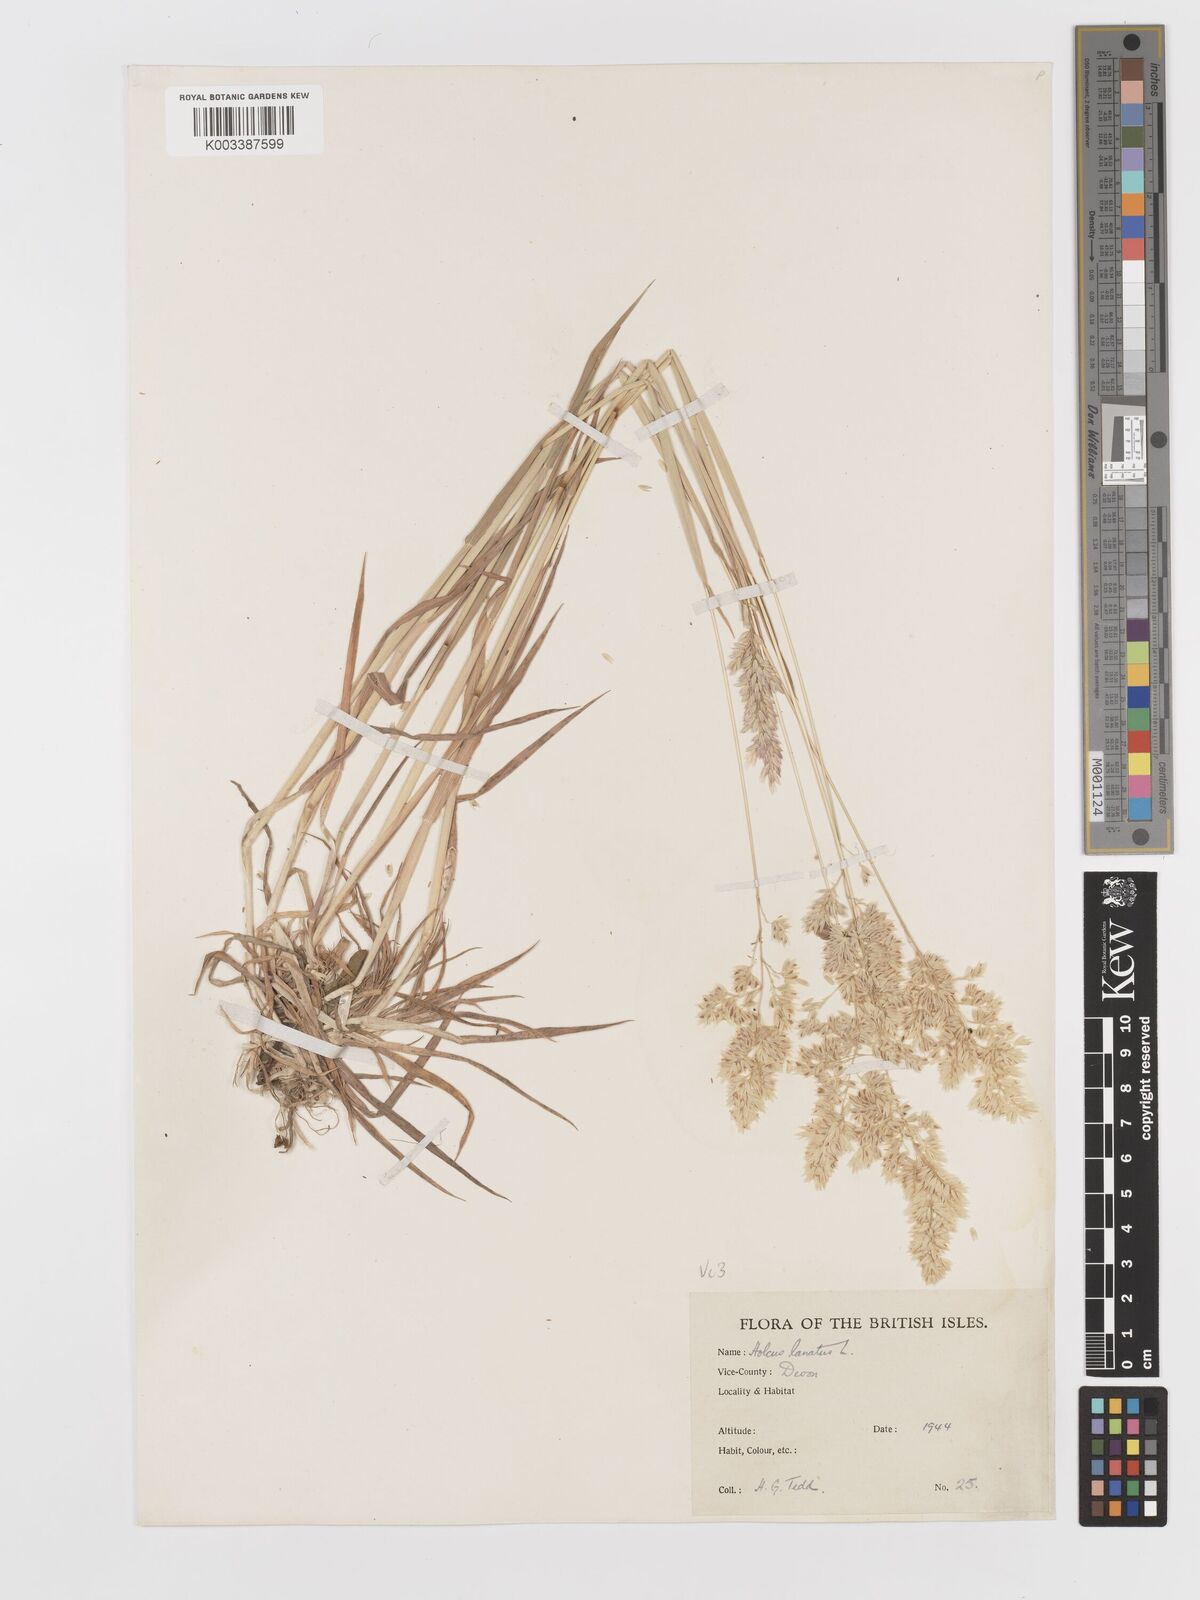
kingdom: Plantae
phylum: Tracheophyta
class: Liliopsida
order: Poales
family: Poaceae
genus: Holcus
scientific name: Holcus lanatus
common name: Yorkshire-fog
